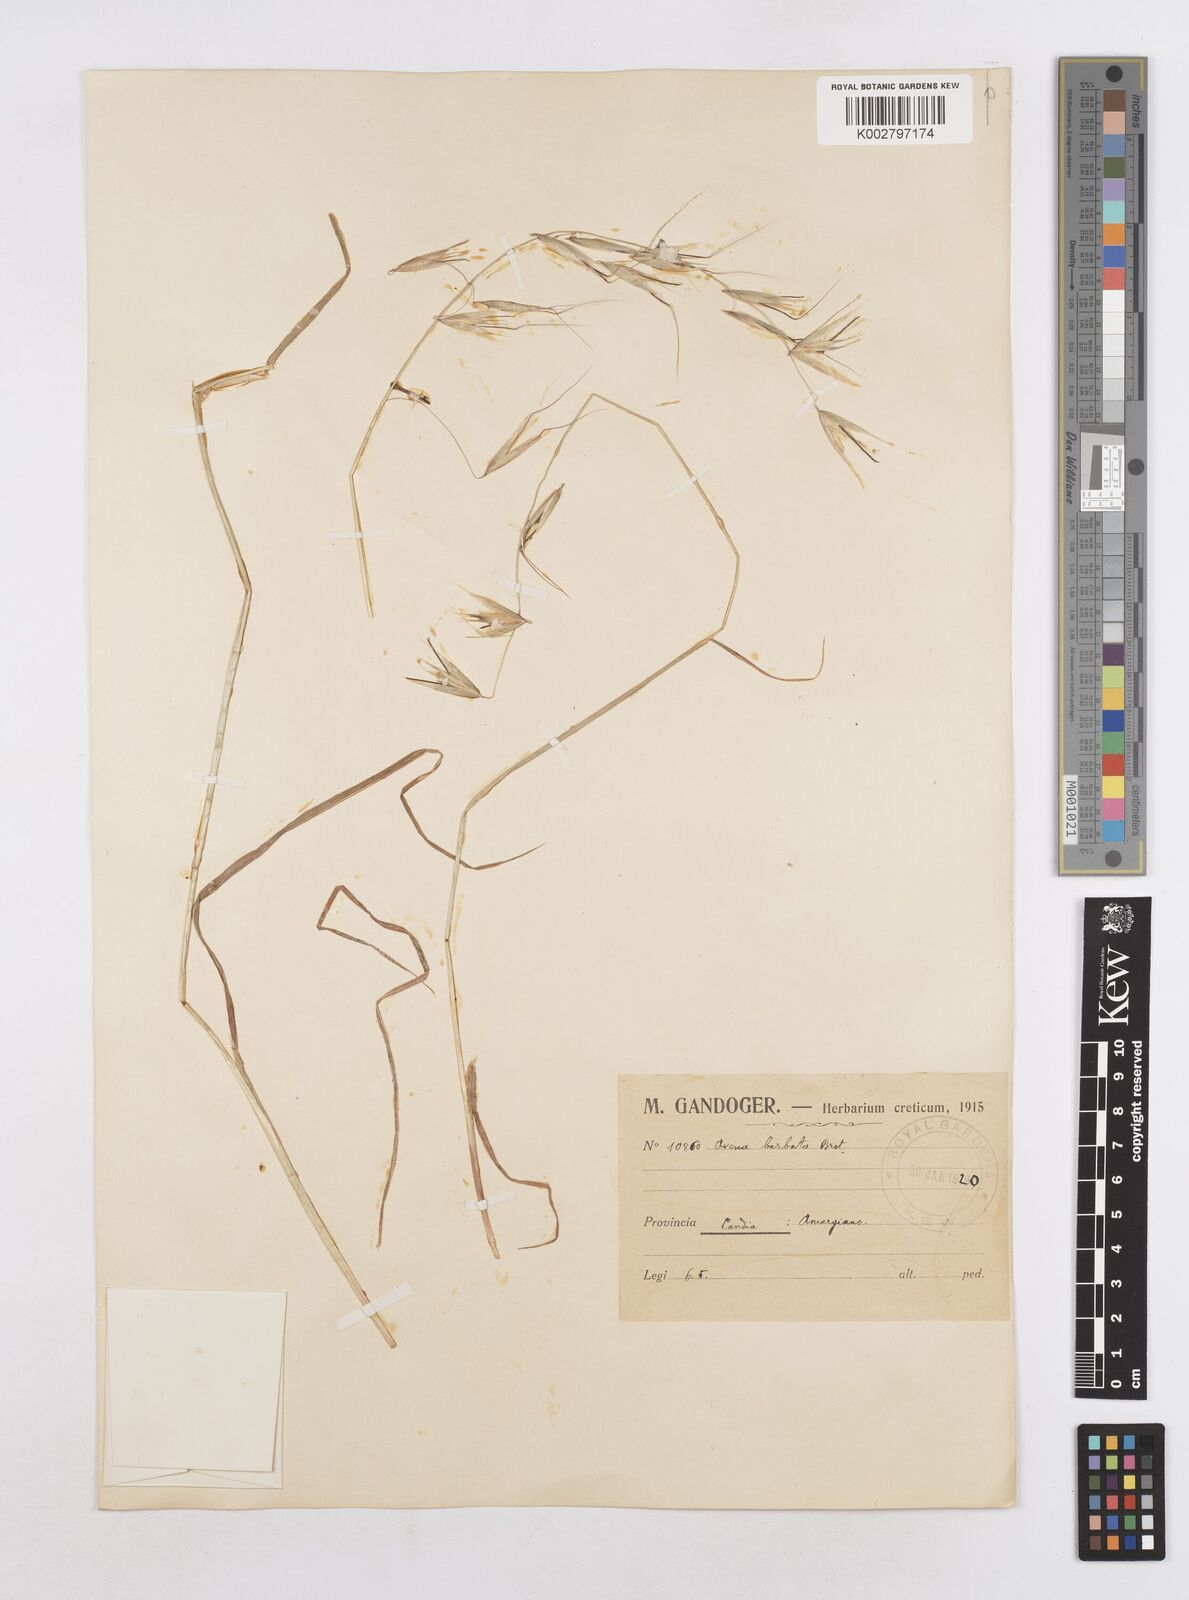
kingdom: Plantae
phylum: Tracheophyta
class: Liliopsida
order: Poales
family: Poaceae
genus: Avena
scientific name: Avena
